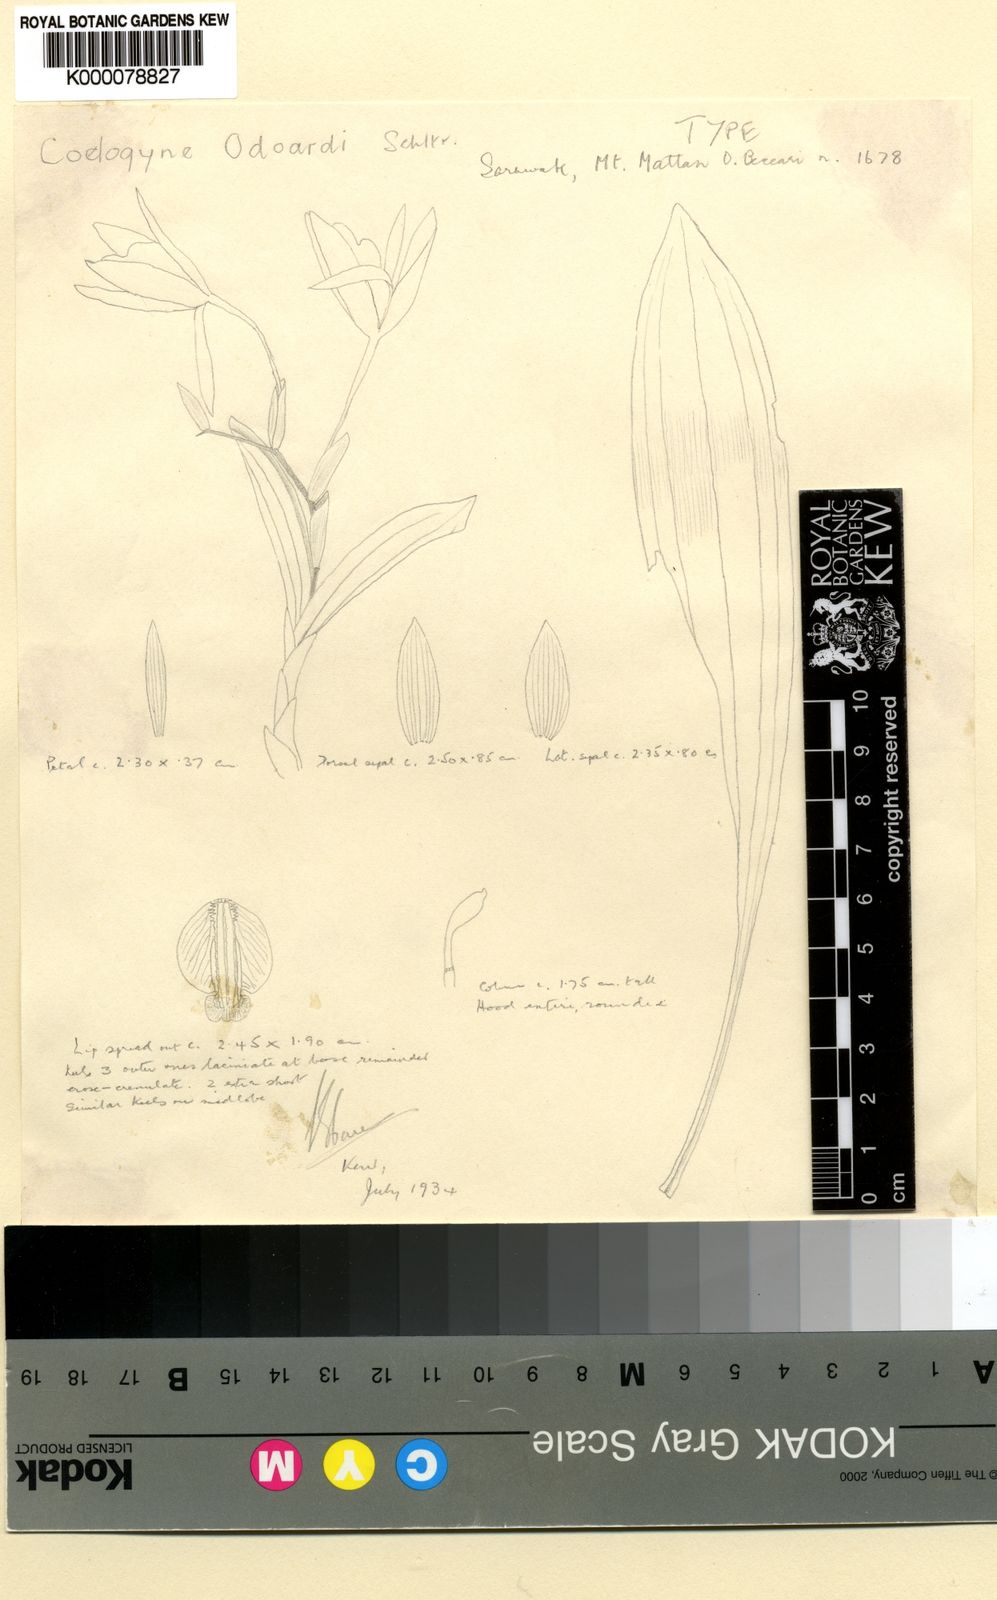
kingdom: Plantae
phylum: Tracheophyta
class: Liliopsida
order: Asparagales
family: Orchidaceae
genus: Coelogyne
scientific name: Coelogyne odoardi
